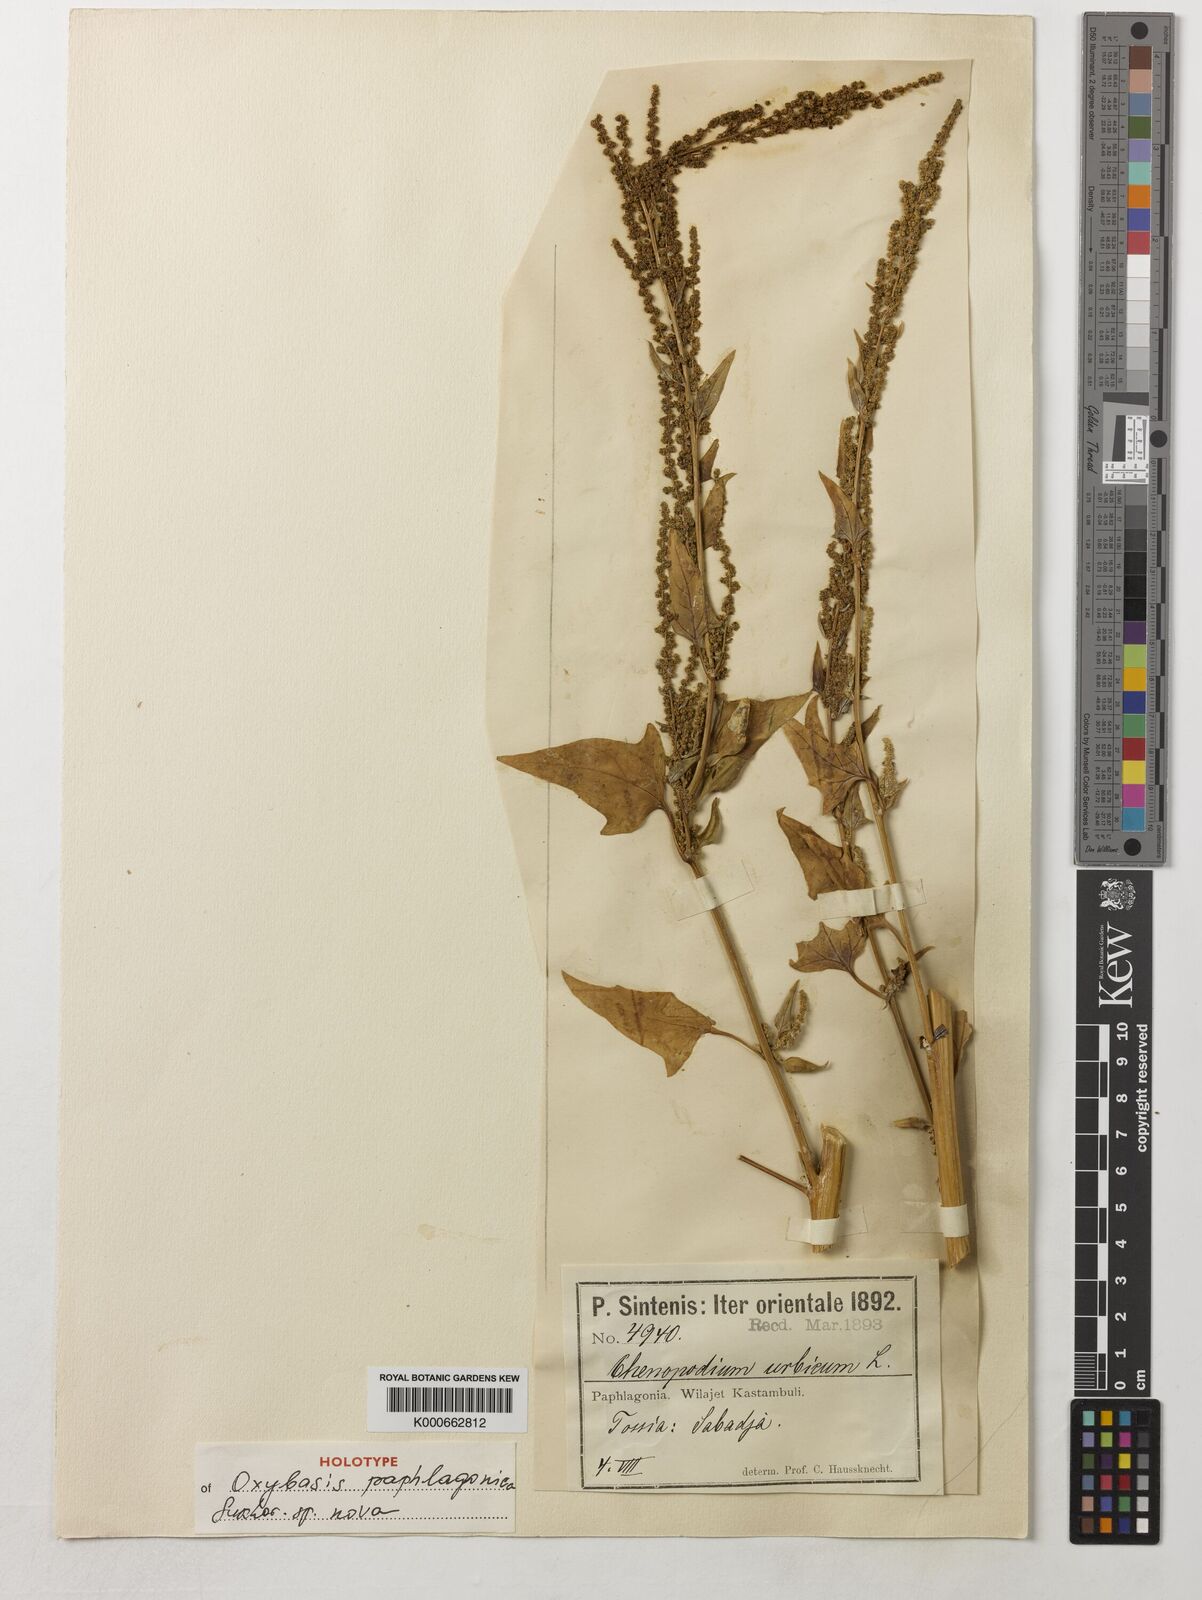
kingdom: Plantae
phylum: Tracheophyta
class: Magnoliopsida
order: Caryophyllales
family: Amaranthaceae
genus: Oxybasis
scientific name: Oxybasis
